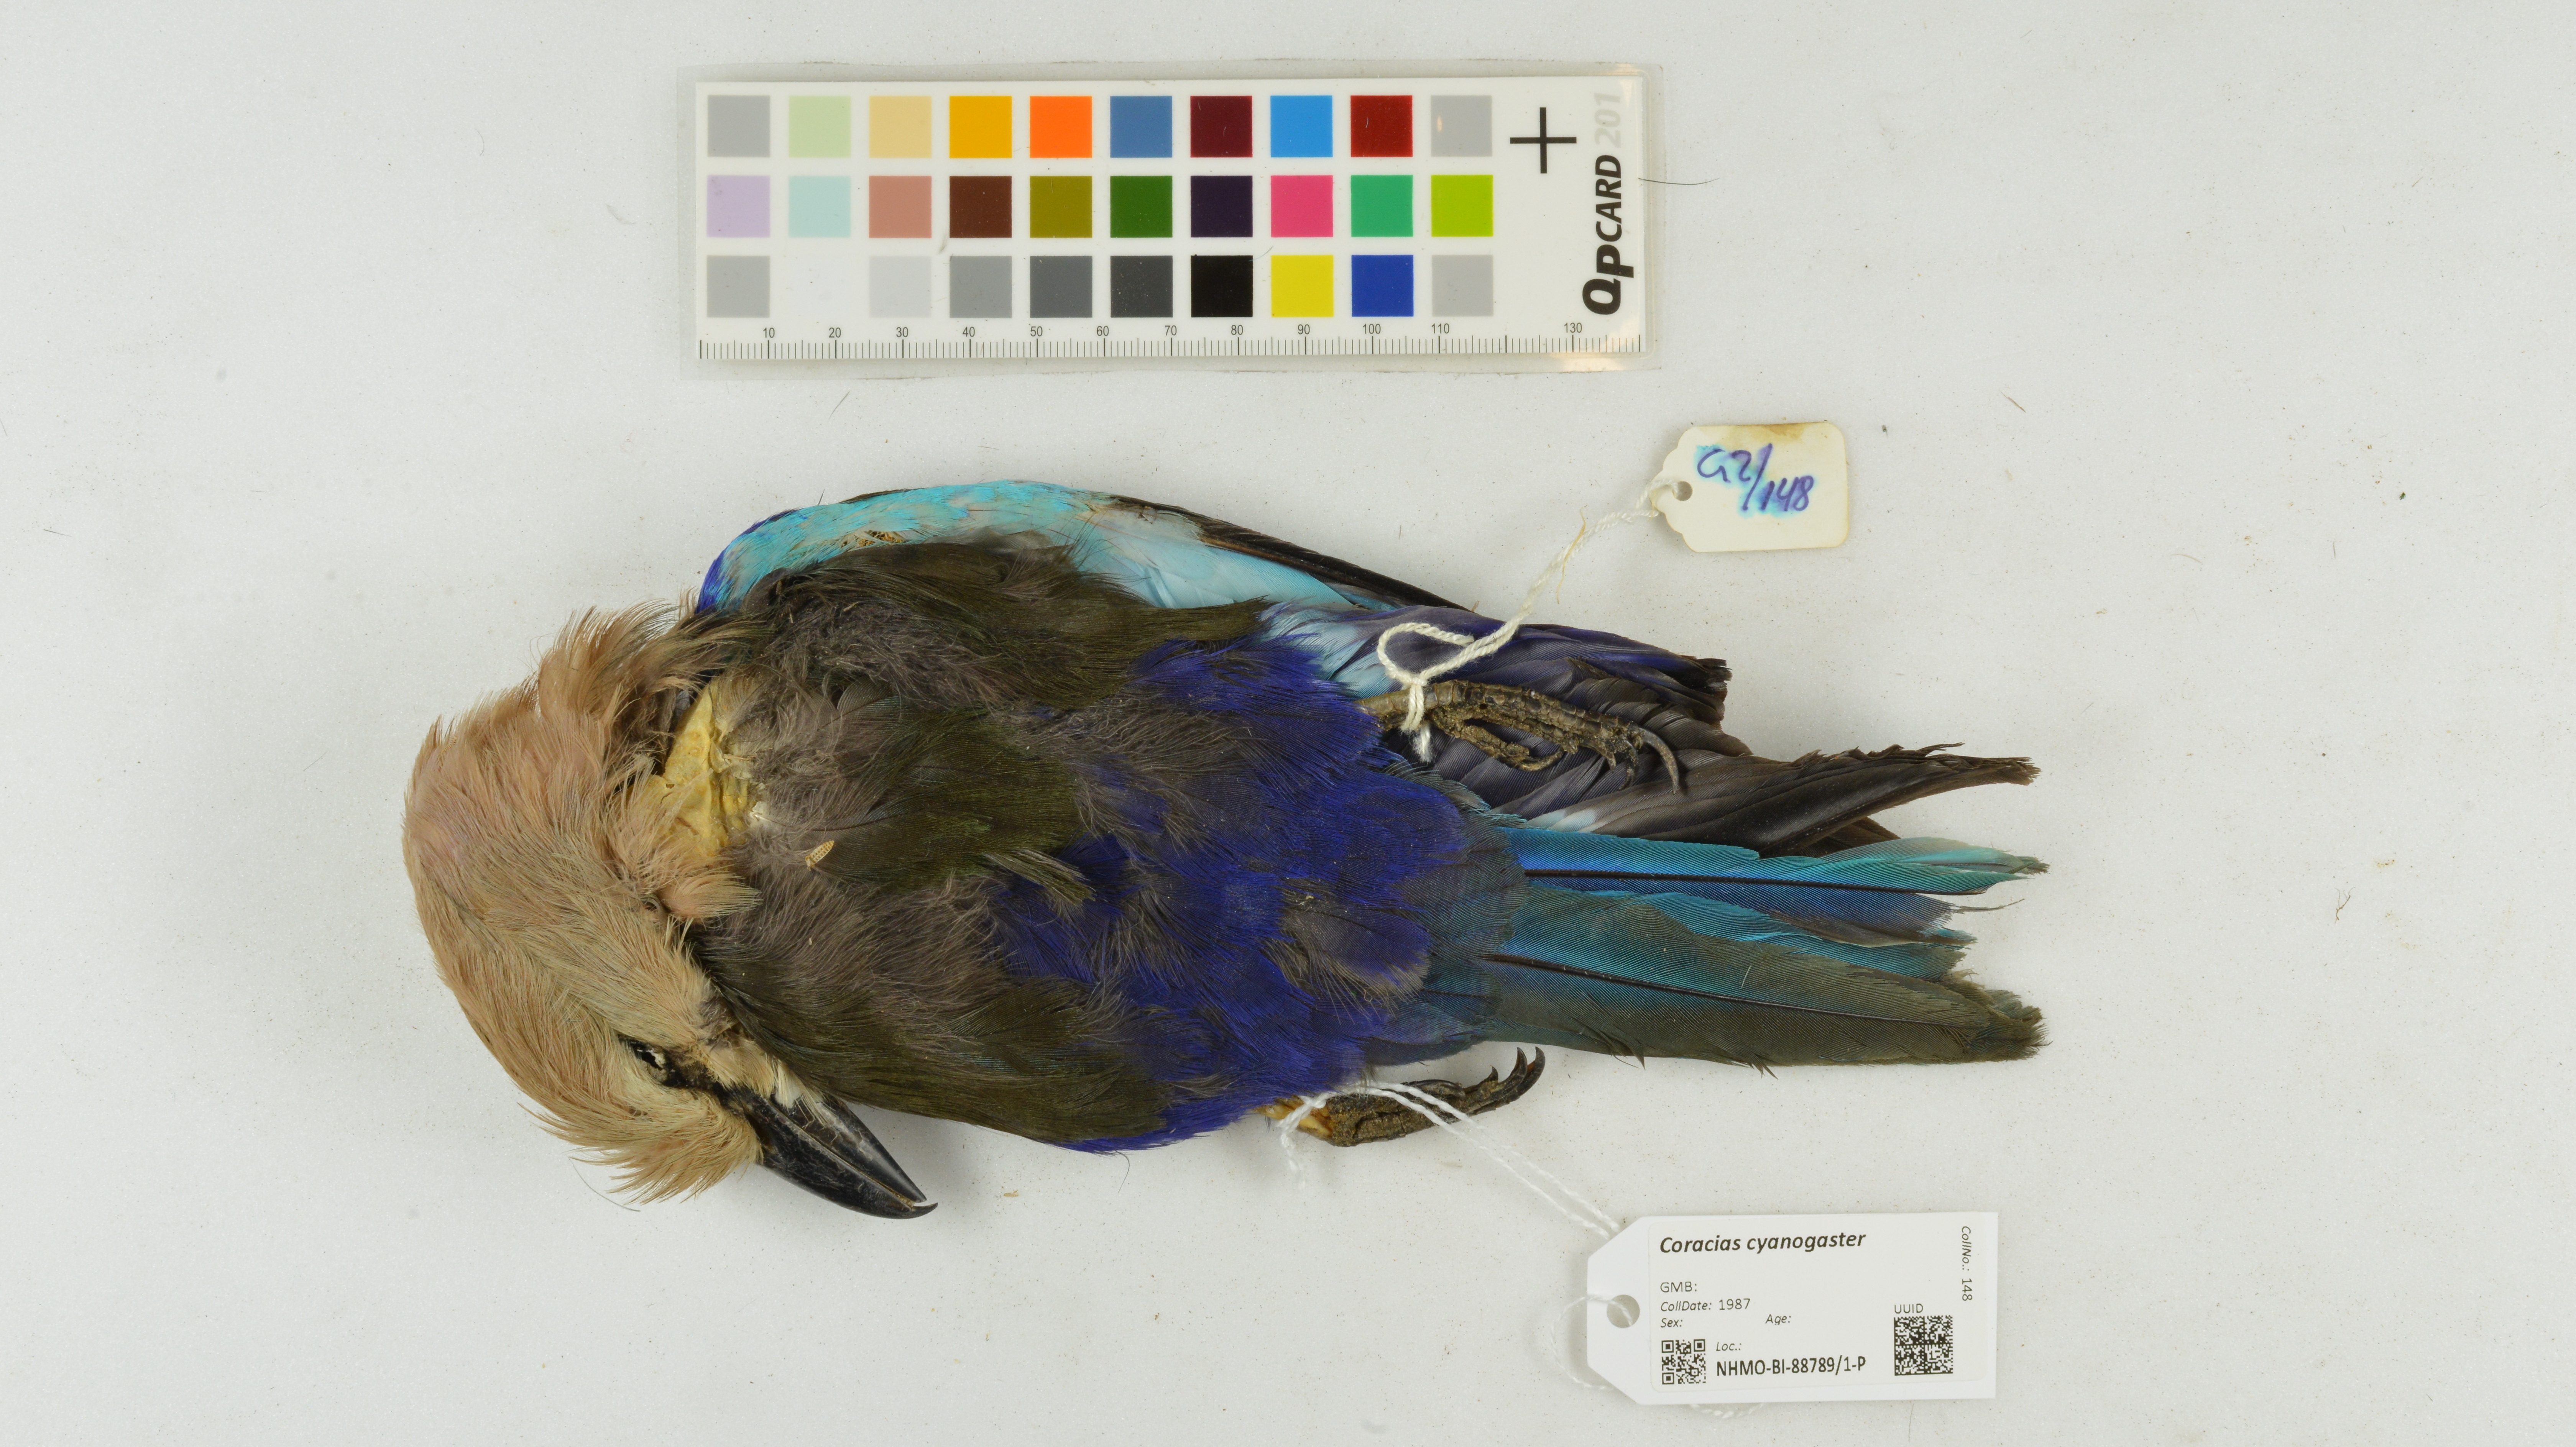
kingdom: Animalia
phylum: Chordata
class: Aves
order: Coraciiformes
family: Coraciidae
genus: Coracias
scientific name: Coracias cyanogaster
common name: Blue-bellied roller
